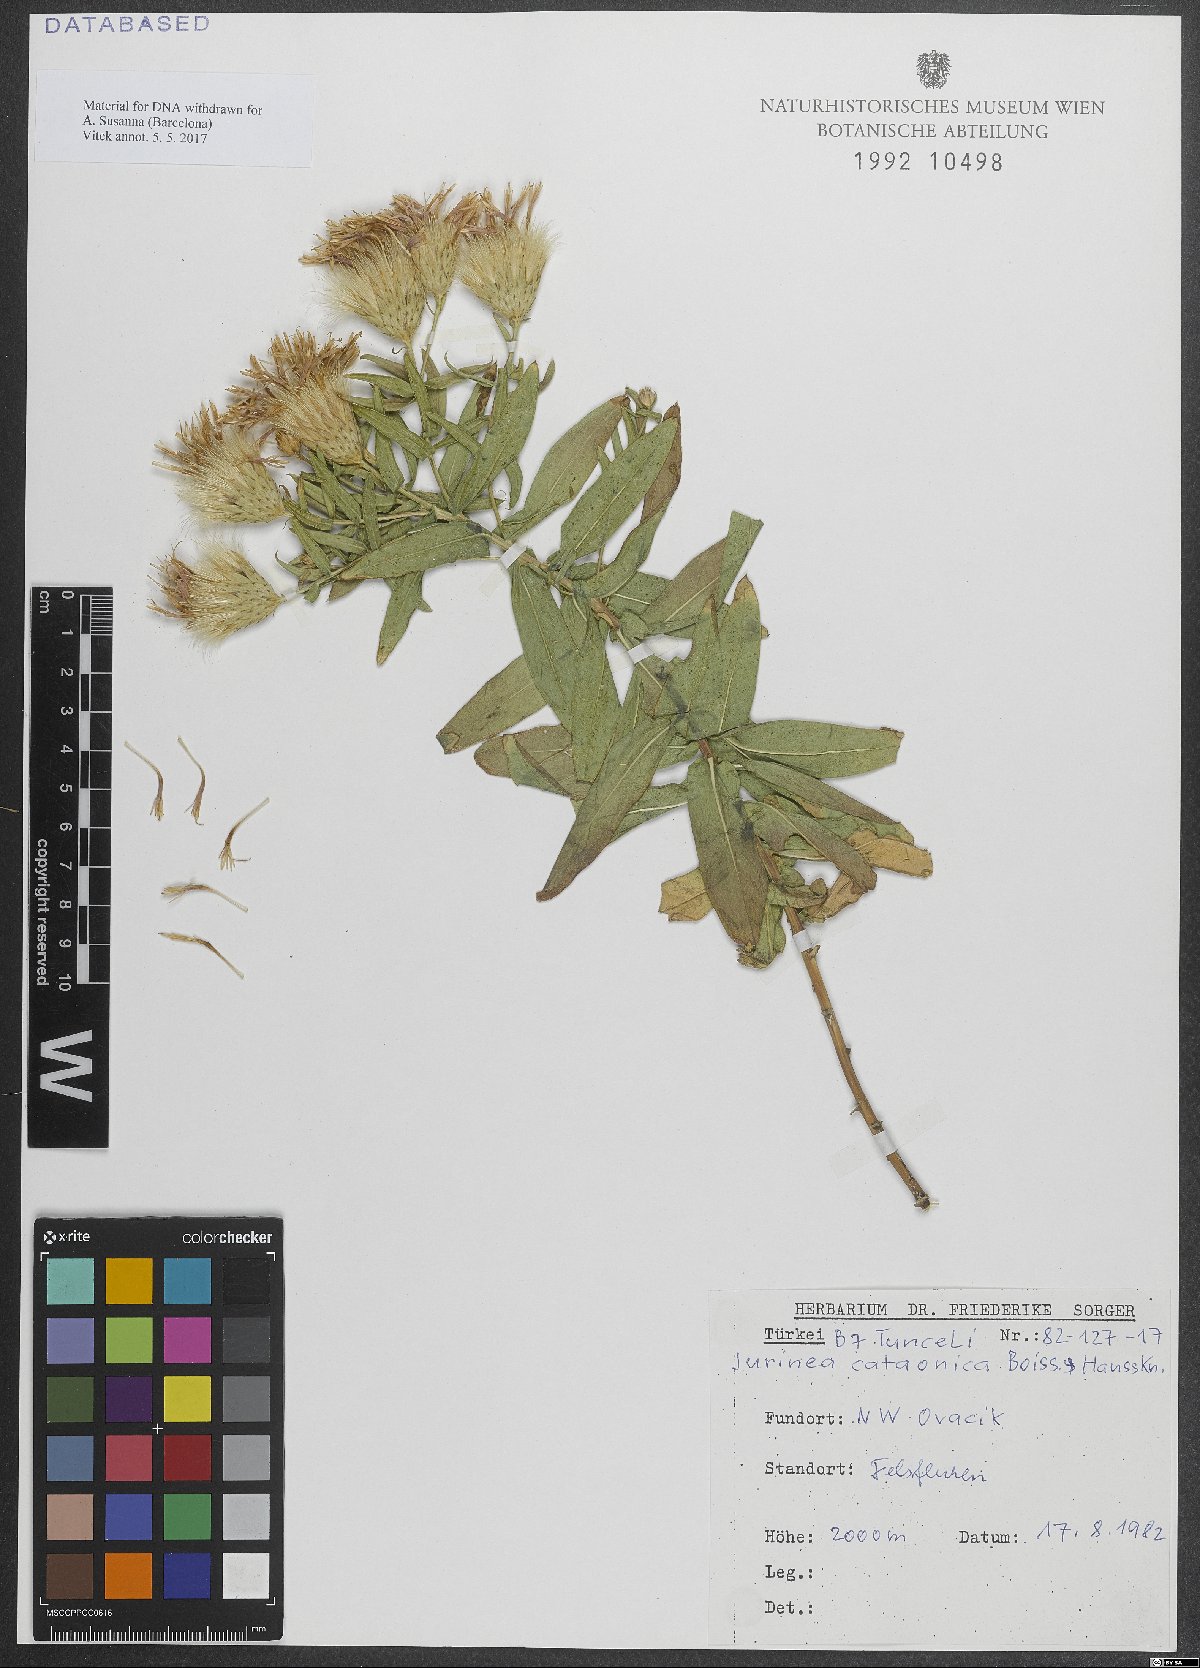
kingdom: Plantae
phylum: Tracheophyta
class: Magnoliopsida
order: Asterales
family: Asteraceae
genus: Jurinea
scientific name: Jurinea cataonica
